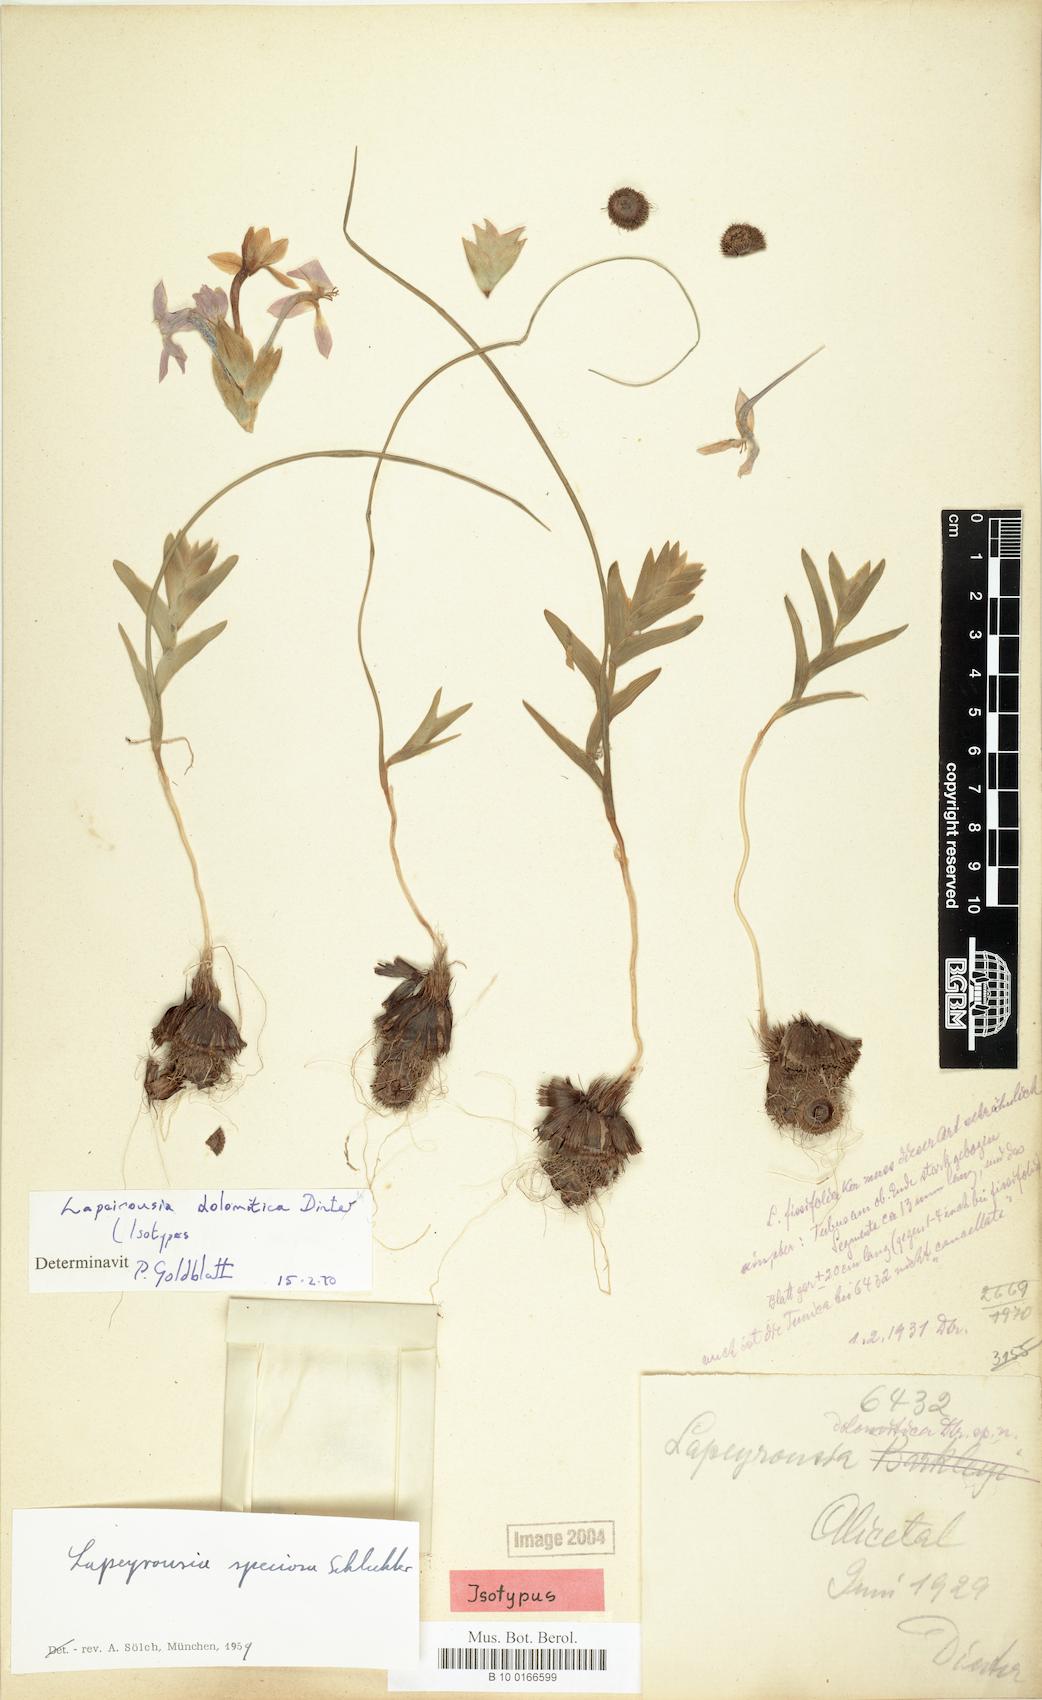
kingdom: Plantae
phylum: Tracheophyta
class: Liliopsida
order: Asparagales
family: Iridaceae
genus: Lapeirousia
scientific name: Lapeirousia dolomitica
